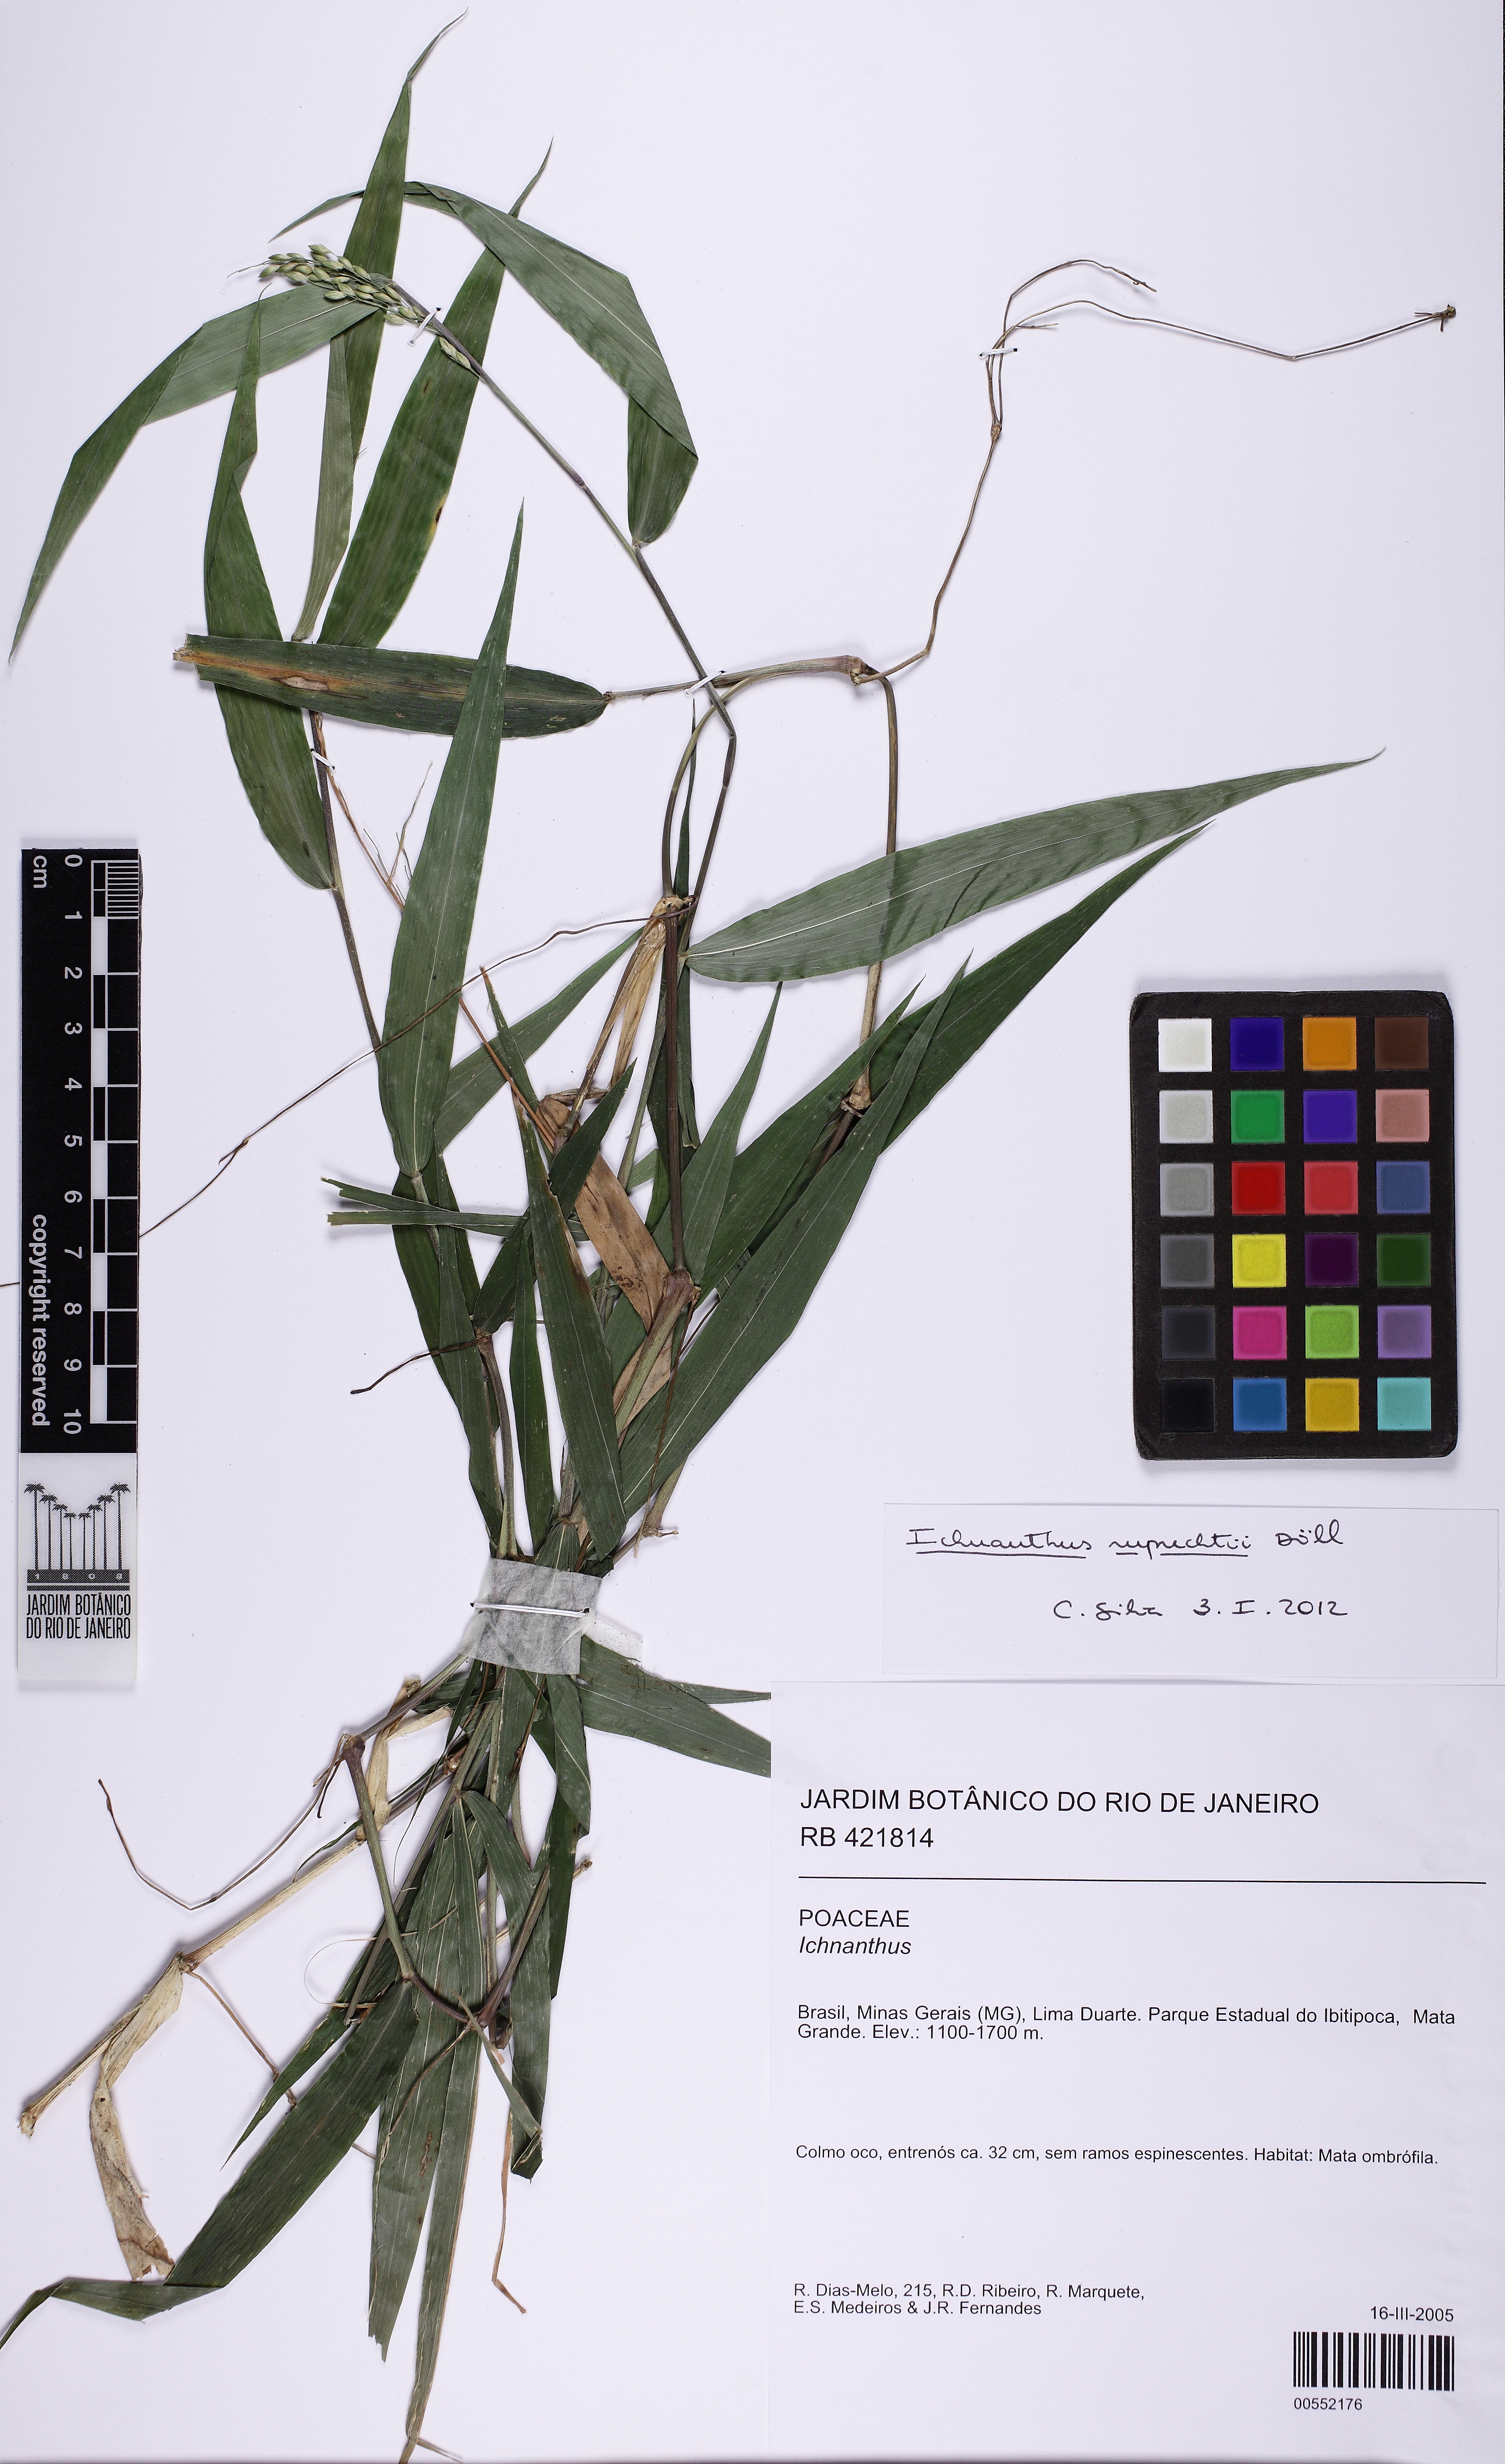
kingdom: Plantae
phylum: Tracheophyta
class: Liliopsida
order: Poales
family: Poaceae
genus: Ichnanthus
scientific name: Ichnanthus ruprechtii
